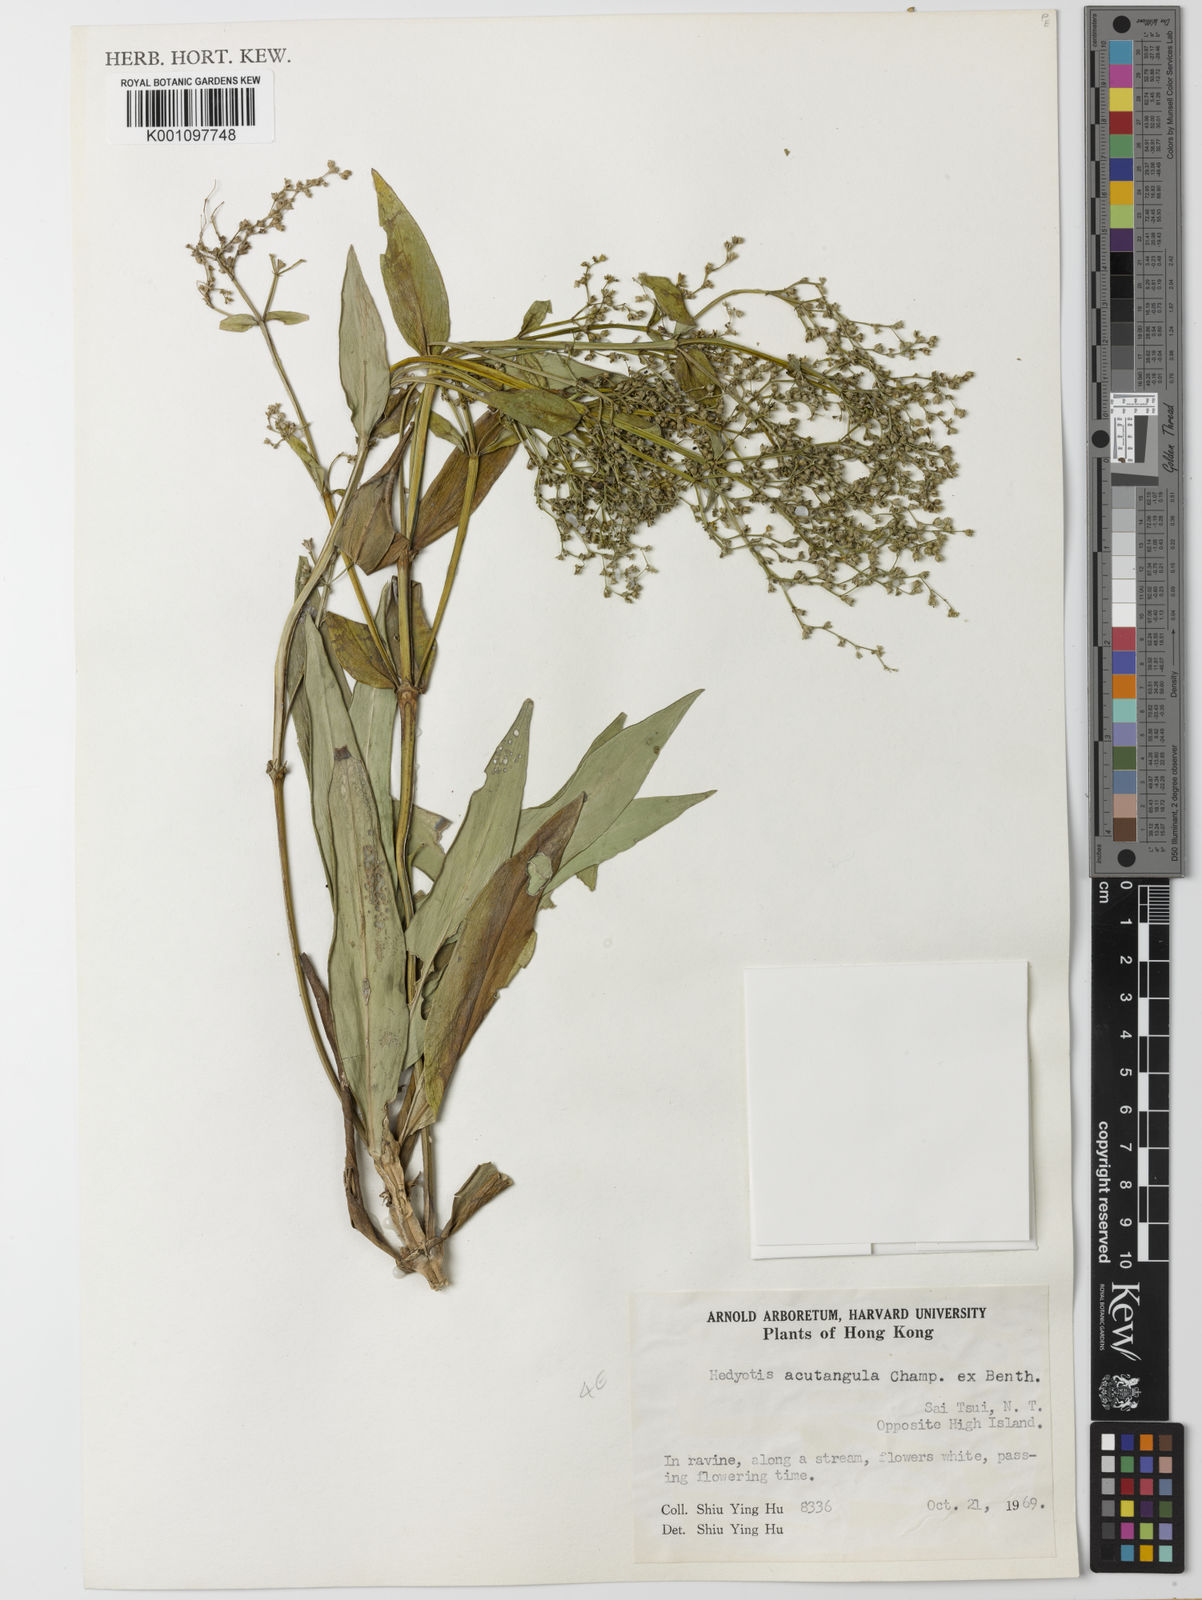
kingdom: Plantae
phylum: Tracheophyta
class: Magnoliopsida
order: Gentianales
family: Rubiaceae
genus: Hedyotis
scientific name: Hedyotis acutangula
